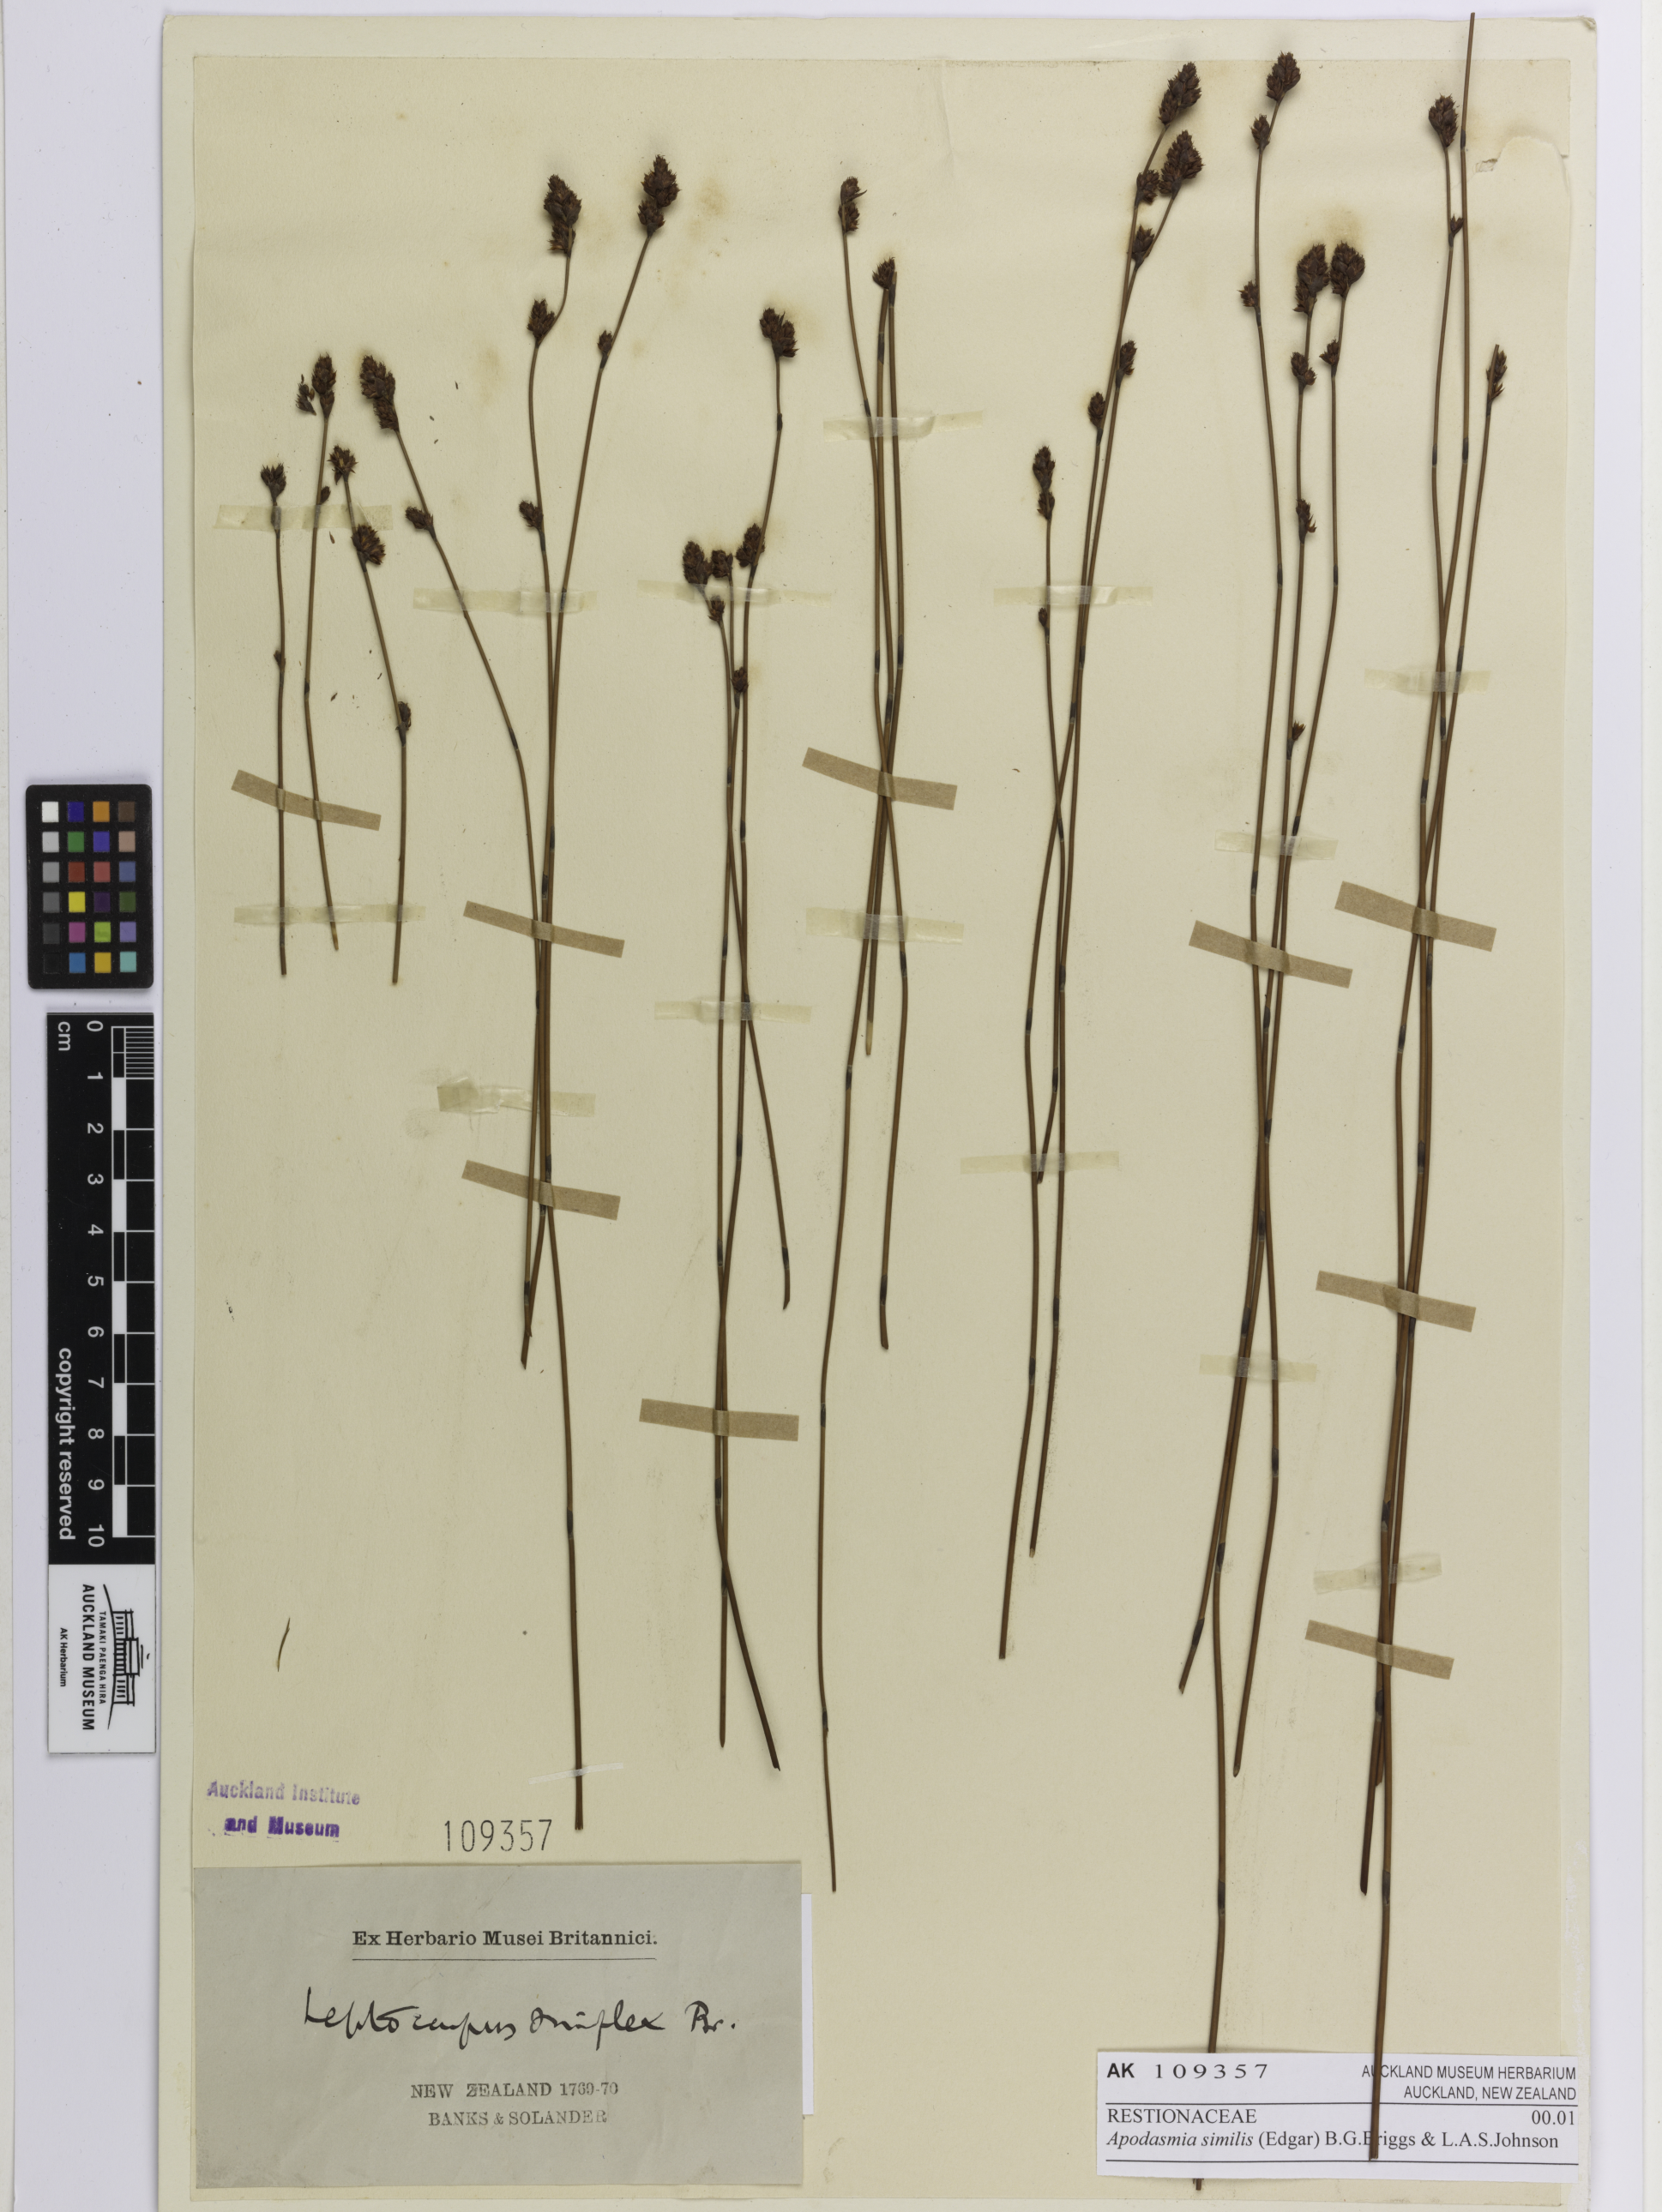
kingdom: Plantae
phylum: Tracheophyta
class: Liliopsida
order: Poales
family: Restionaceae
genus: Apodasmia
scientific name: Apodasmia similis
